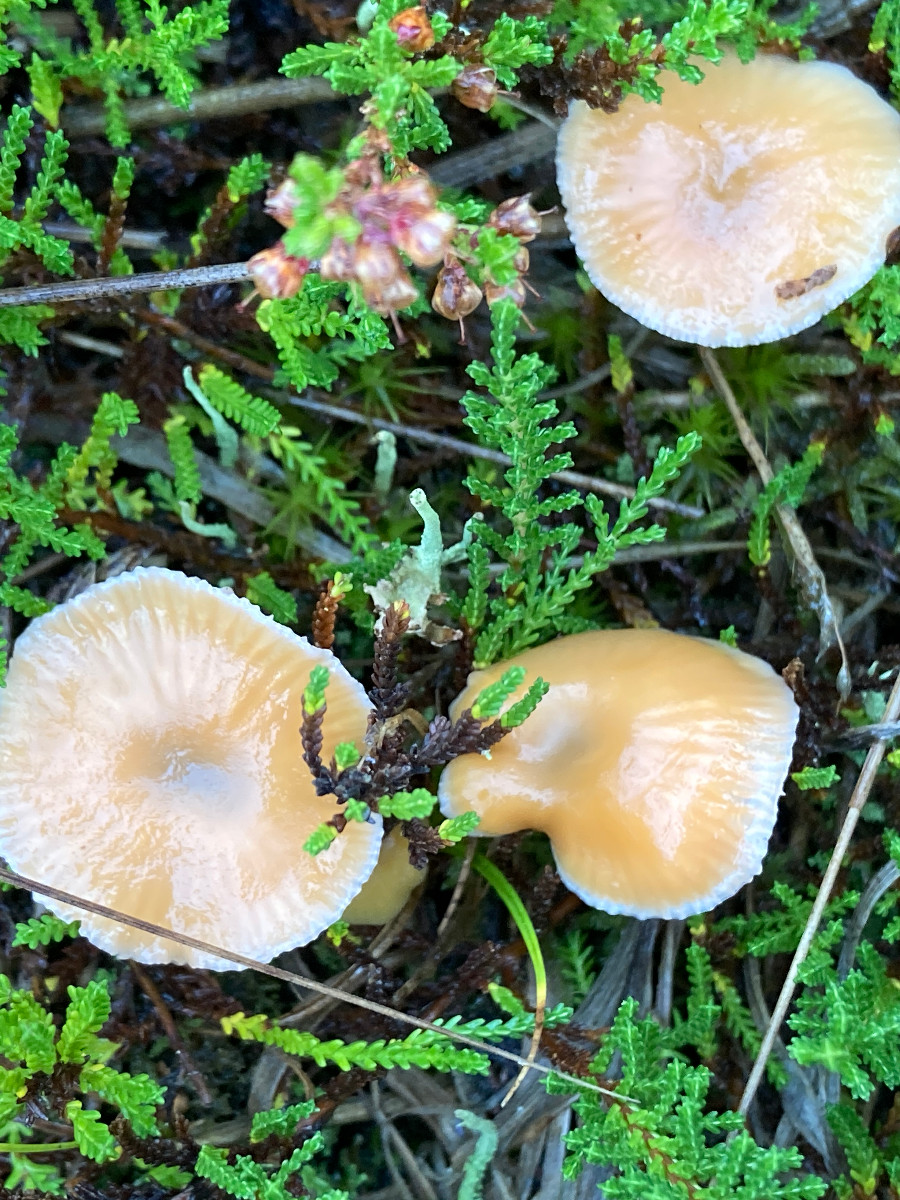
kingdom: Fungi
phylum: Basidiomycota
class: Agaricomycetes
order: Agaricales
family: Hygrophoraceae
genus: Gliophorus
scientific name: Gliophorus laetus
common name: brusk-vokshat
